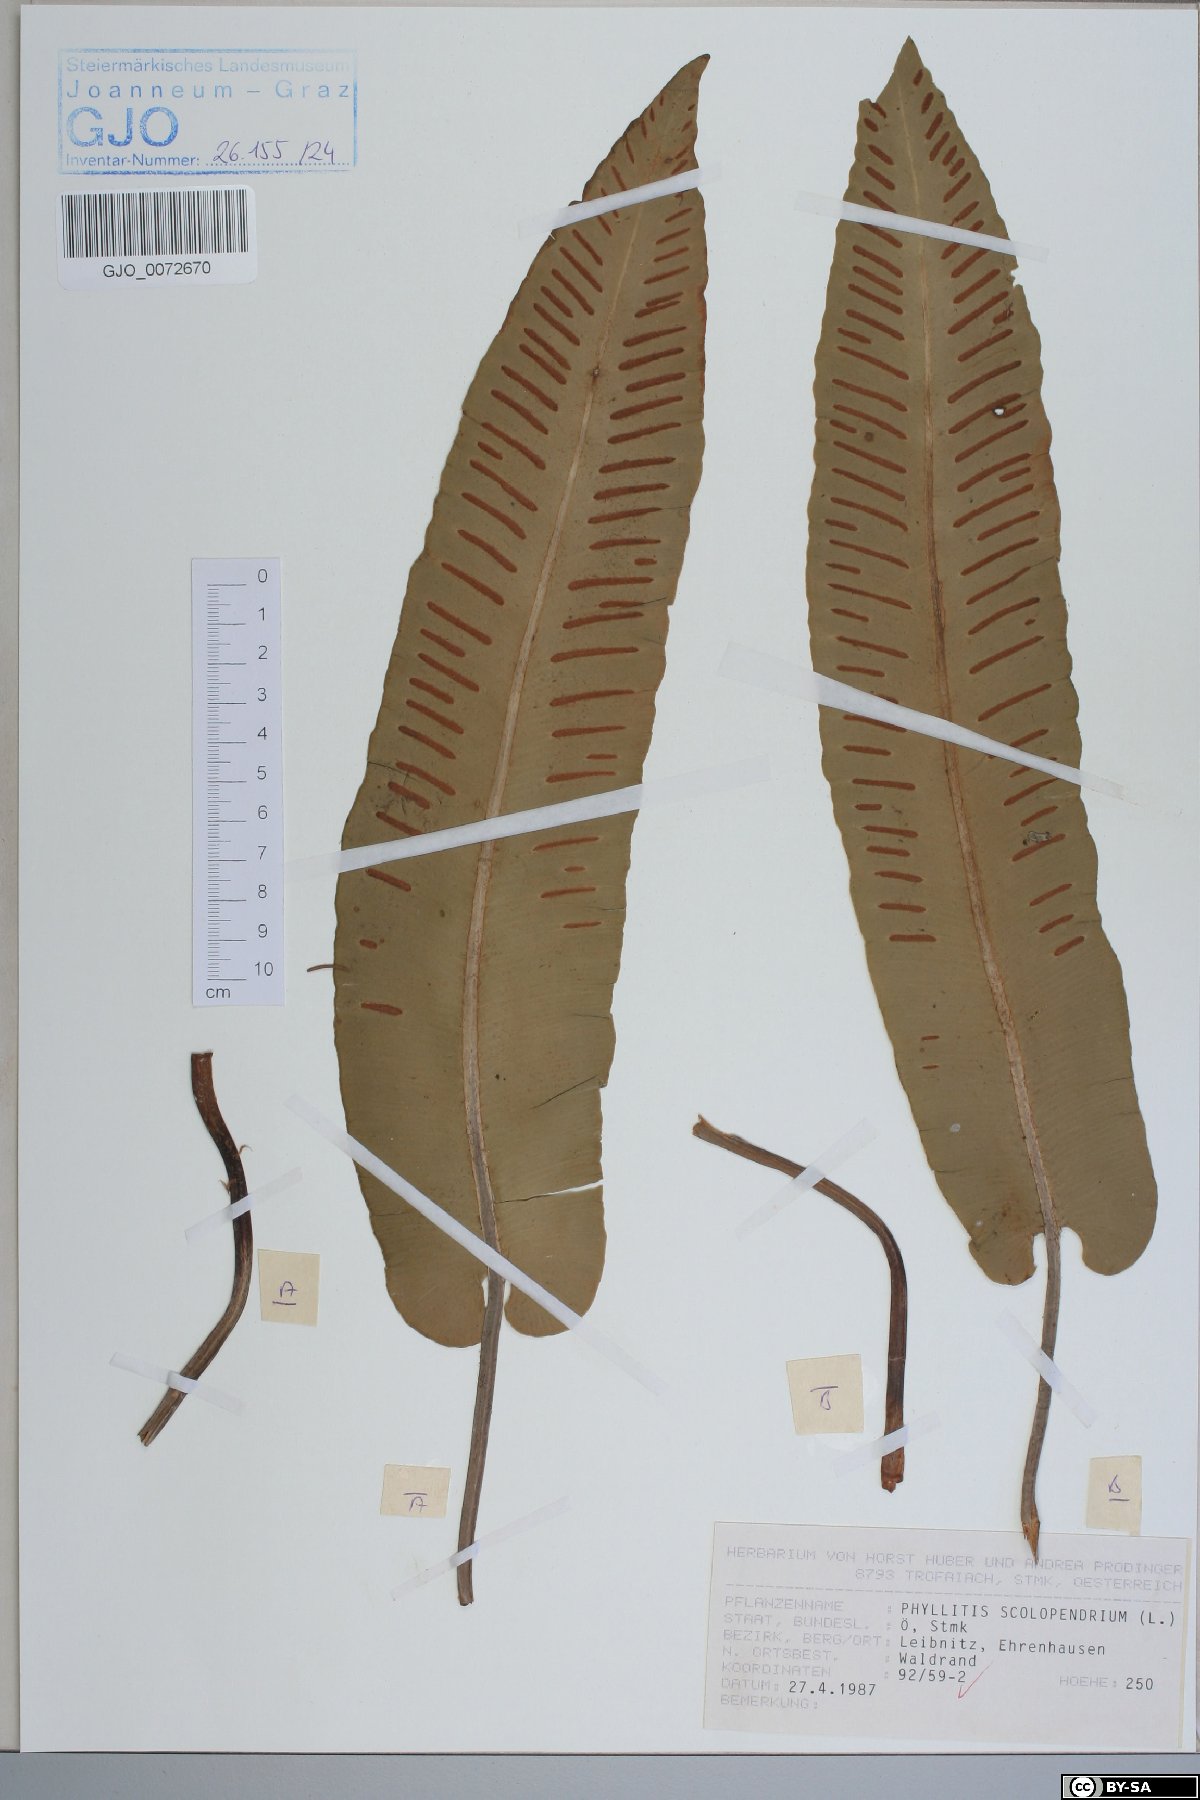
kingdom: Plantae
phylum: Tracheophyta
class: Polypodiopsida
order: Polypodiales
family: Aspleniaceae
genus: Asplenium
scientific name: Asplenium scolopendrium
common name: Hart's-tongue fern
